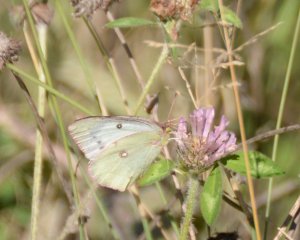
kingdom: Animalia
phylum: Arthropoda
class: Insecta
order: Lepidoptera
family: Pieridae
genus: Colias
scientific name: Colias philodice
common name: Clouded Sulphur
